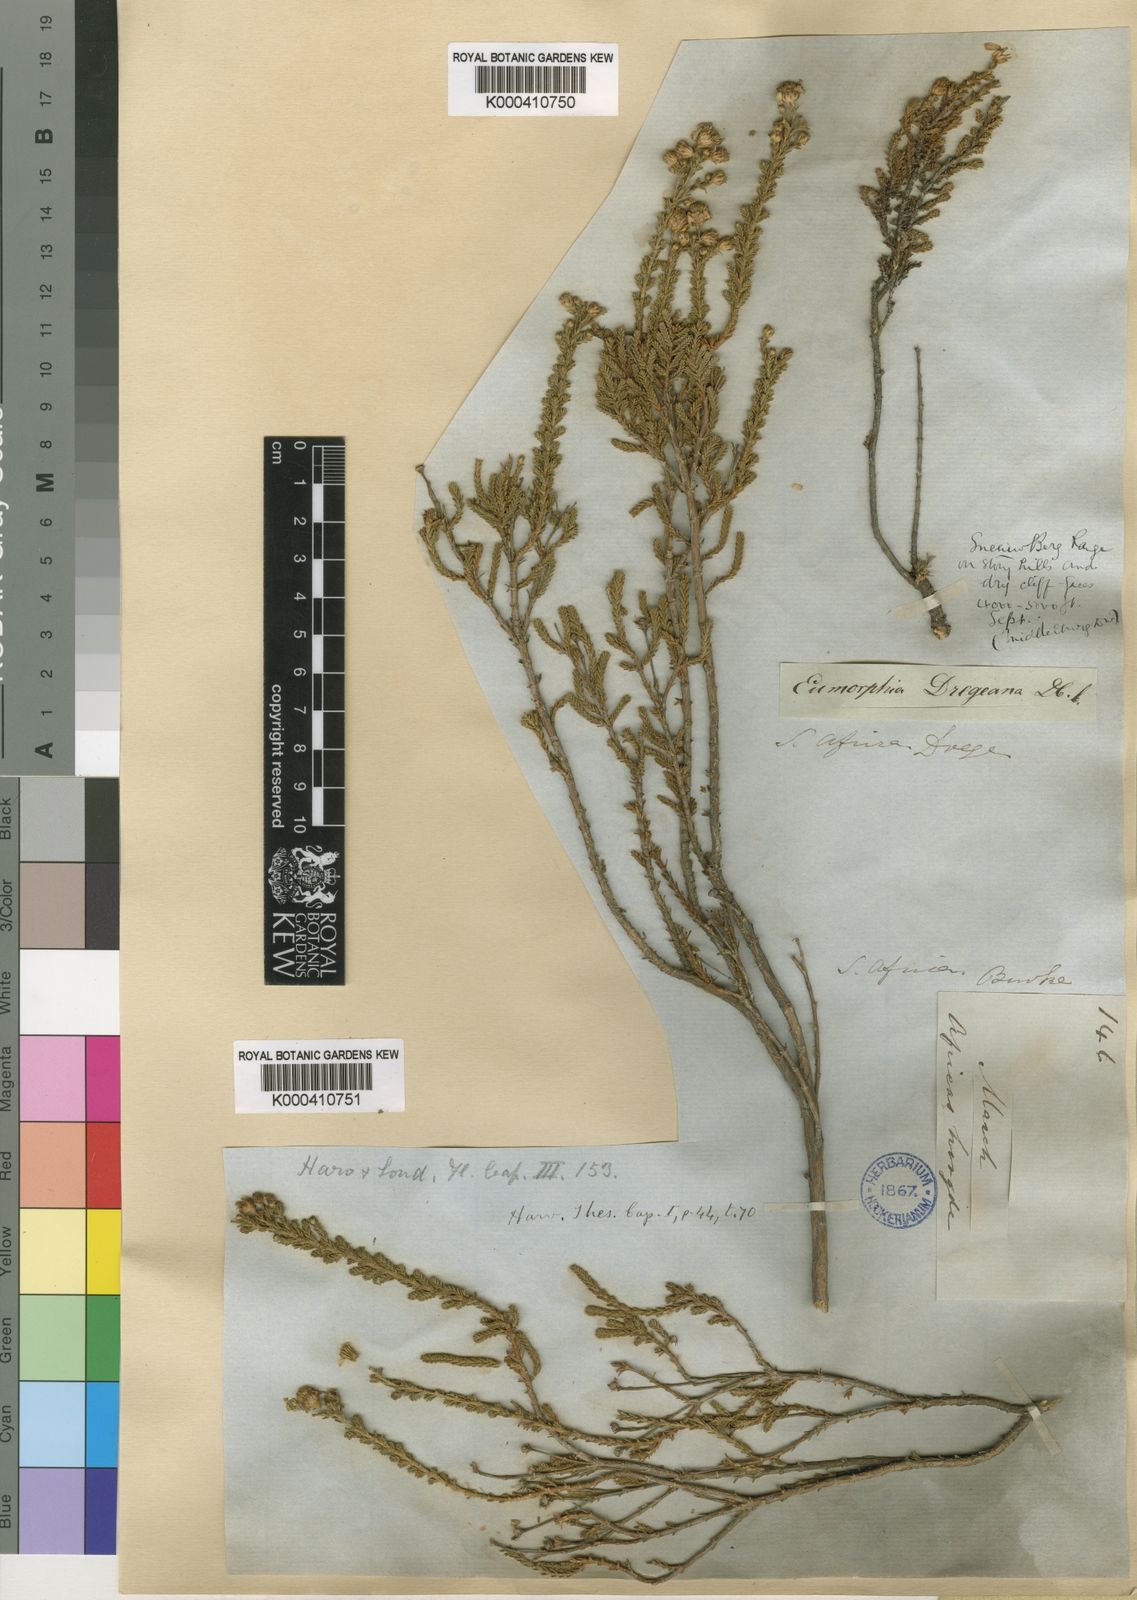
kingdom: Plantae
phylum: Tracheophyta
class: Magnoliopsida
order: Asterales
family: Asteraceae
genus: Eumorphia
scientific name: Eumorphia dregeana
